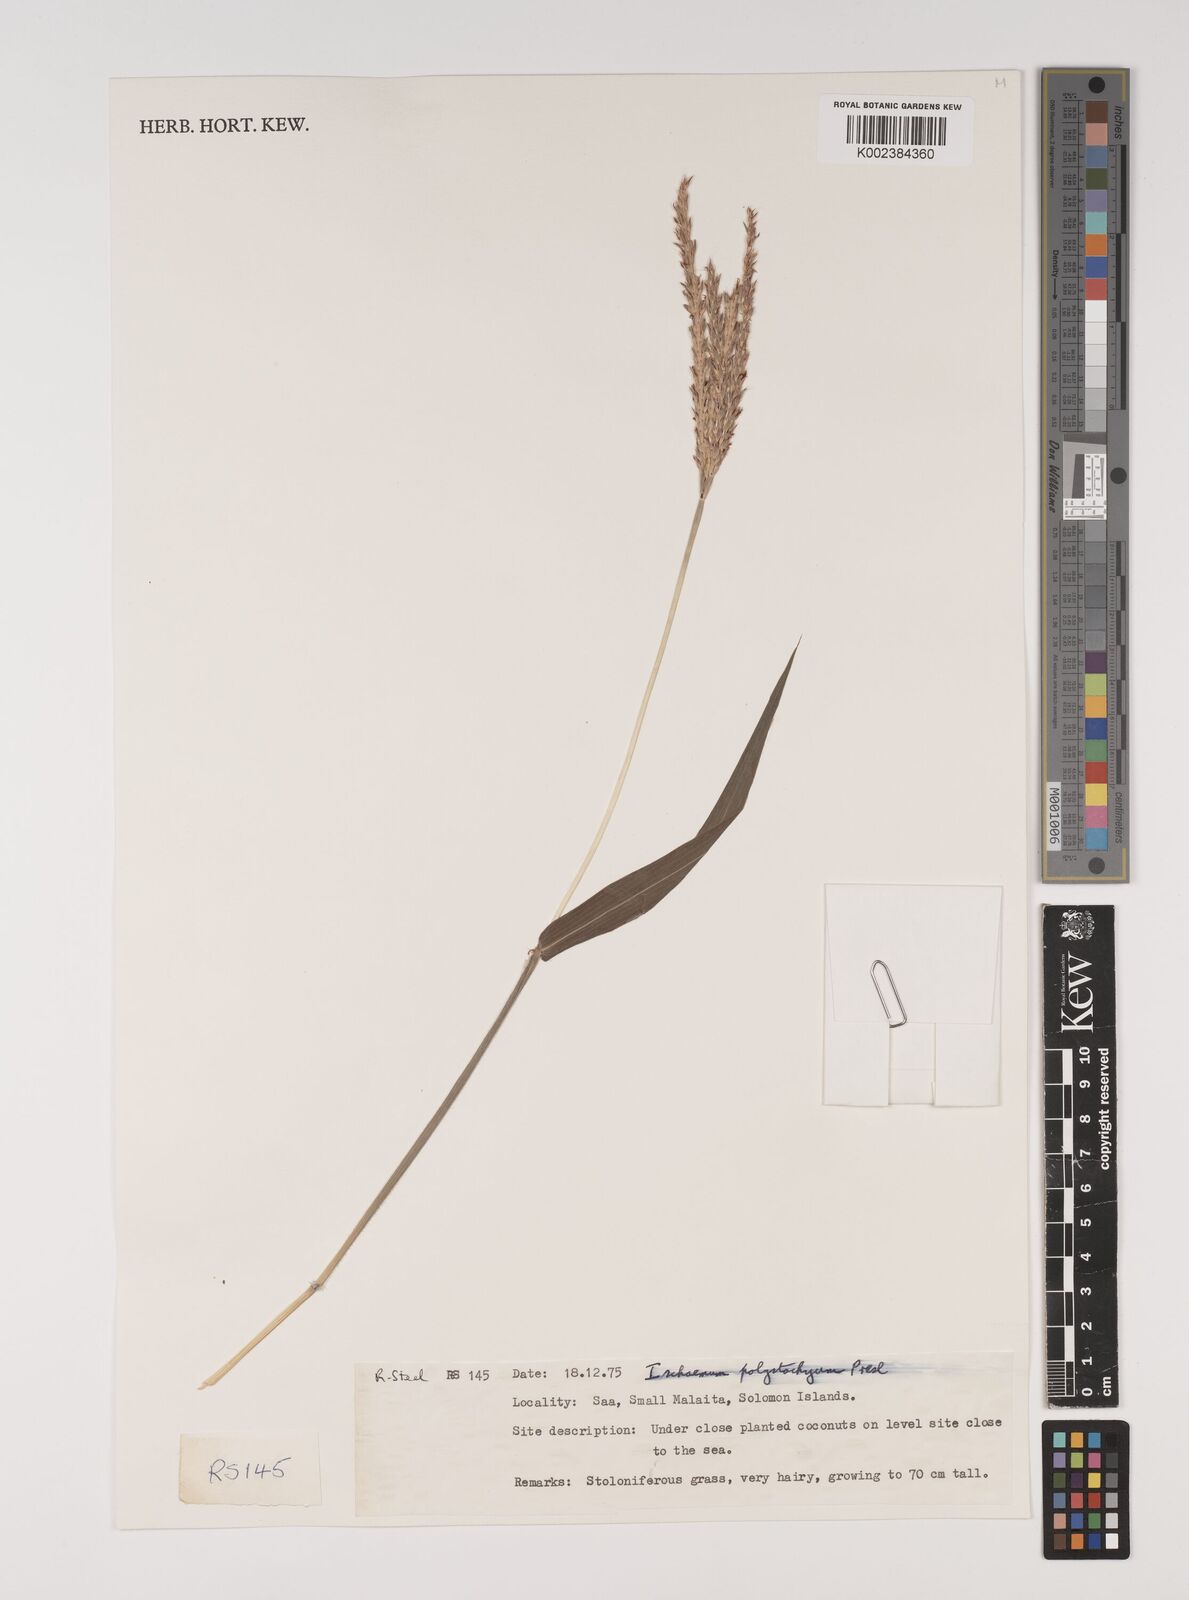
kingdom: Plantae
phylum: Tracheophyta
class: Liliopsida
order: Poales
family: Poaceae
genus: Ischaemum
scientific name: Ischaemum polystachyum
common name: Paddle grass
